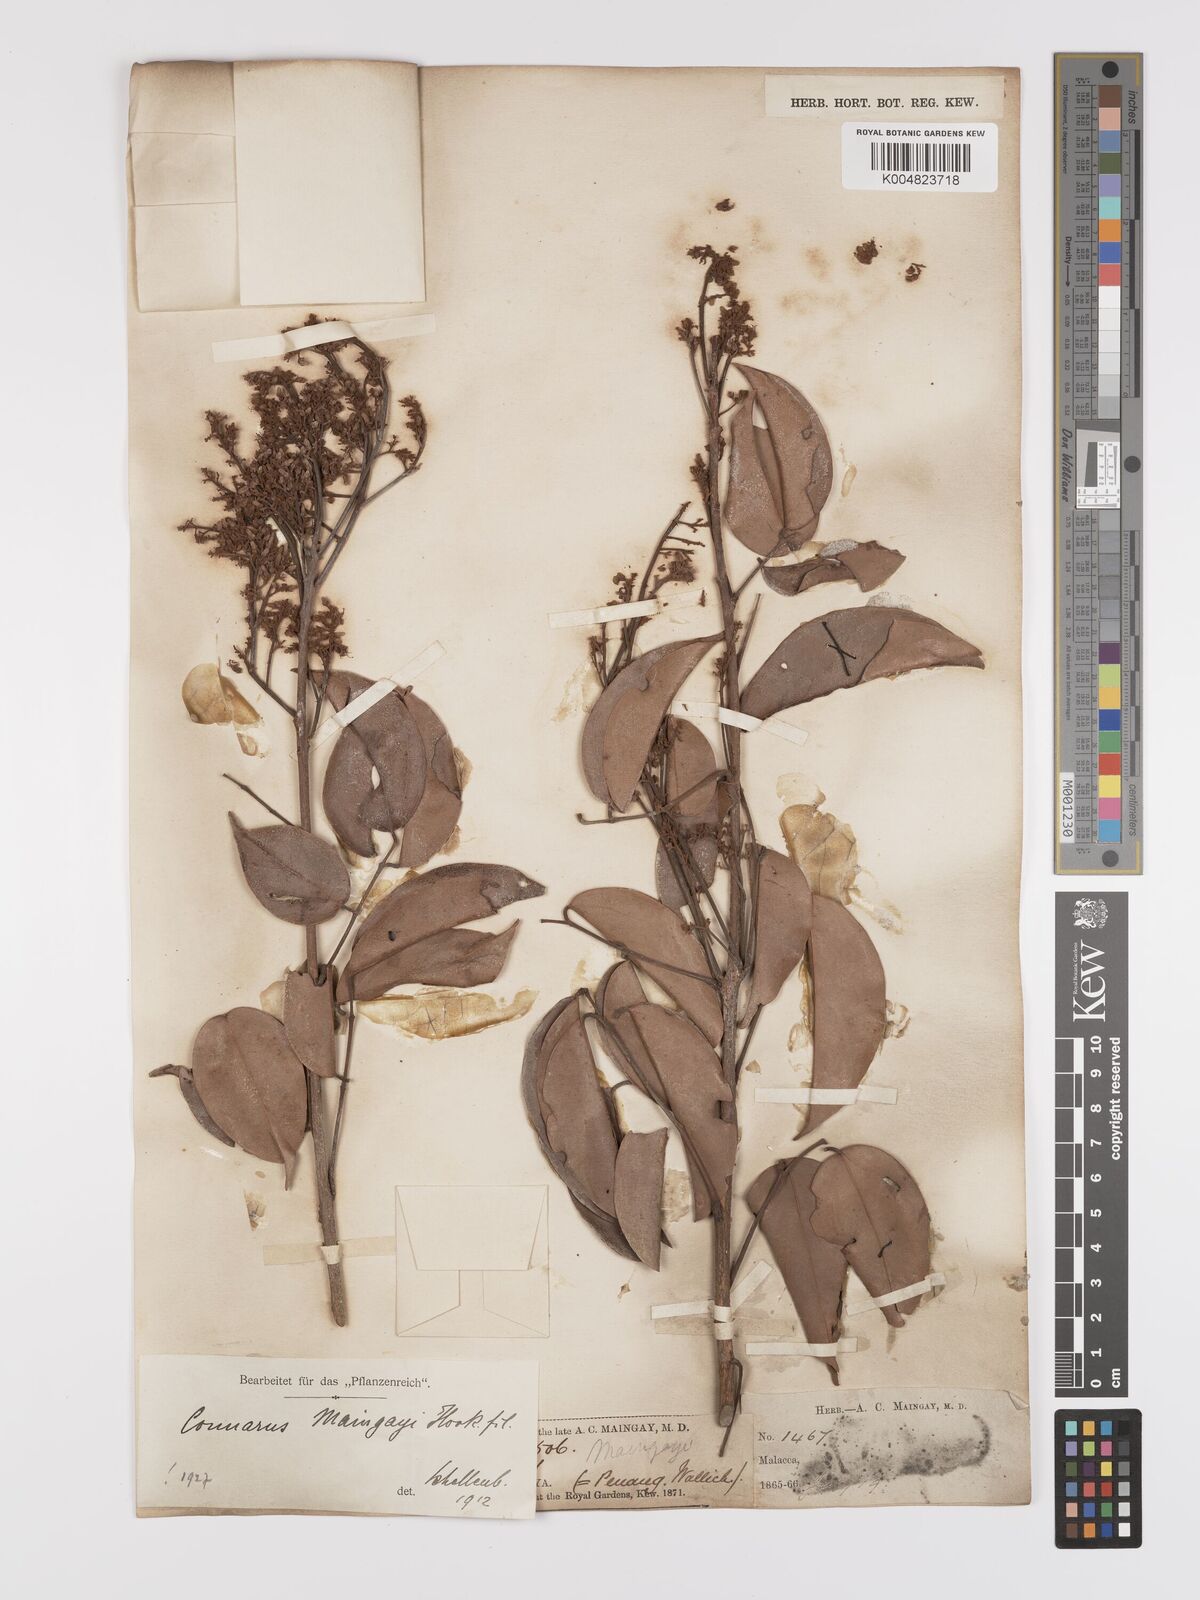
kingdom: Plantae
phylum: Tracheophyta
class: Magnoliopsida
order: Oxalidales
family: Connaraceae
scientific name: Connaraceae
